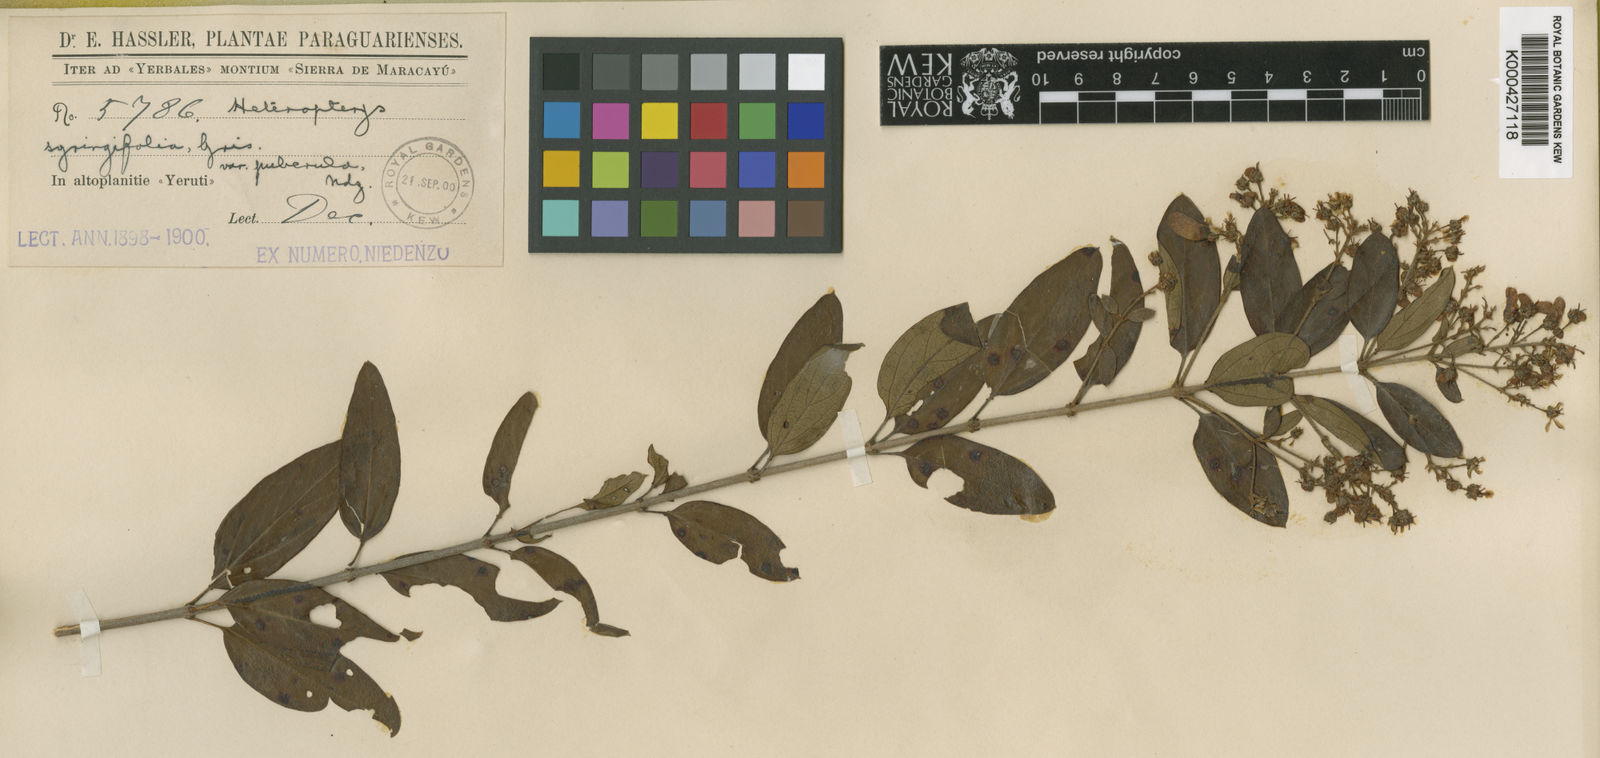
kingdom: Plantae
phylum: Tracheophyta
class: Magnoliopsida
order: Malpighiales
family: Malpighiaceae
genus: Heteropterys
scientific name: Heteropterys syringifolia
